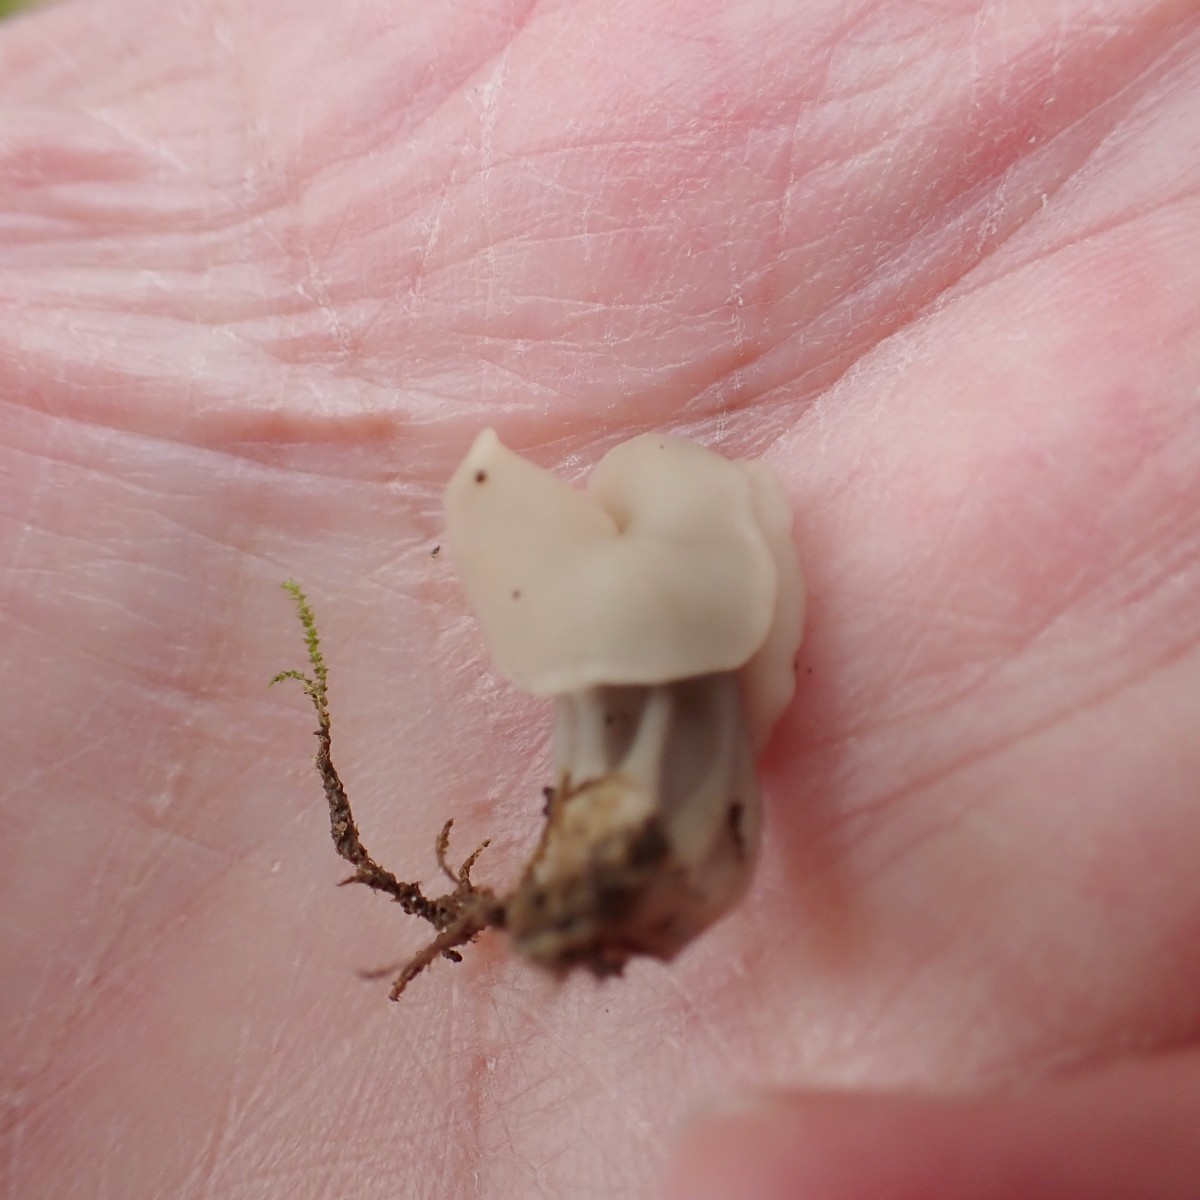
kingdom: Fungi
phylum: Ascomycota
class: Pezizomycetes
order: Pezizales
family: Helvellaceae
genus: Helvella
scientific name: Helvella crispa
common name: kruset foldhat
